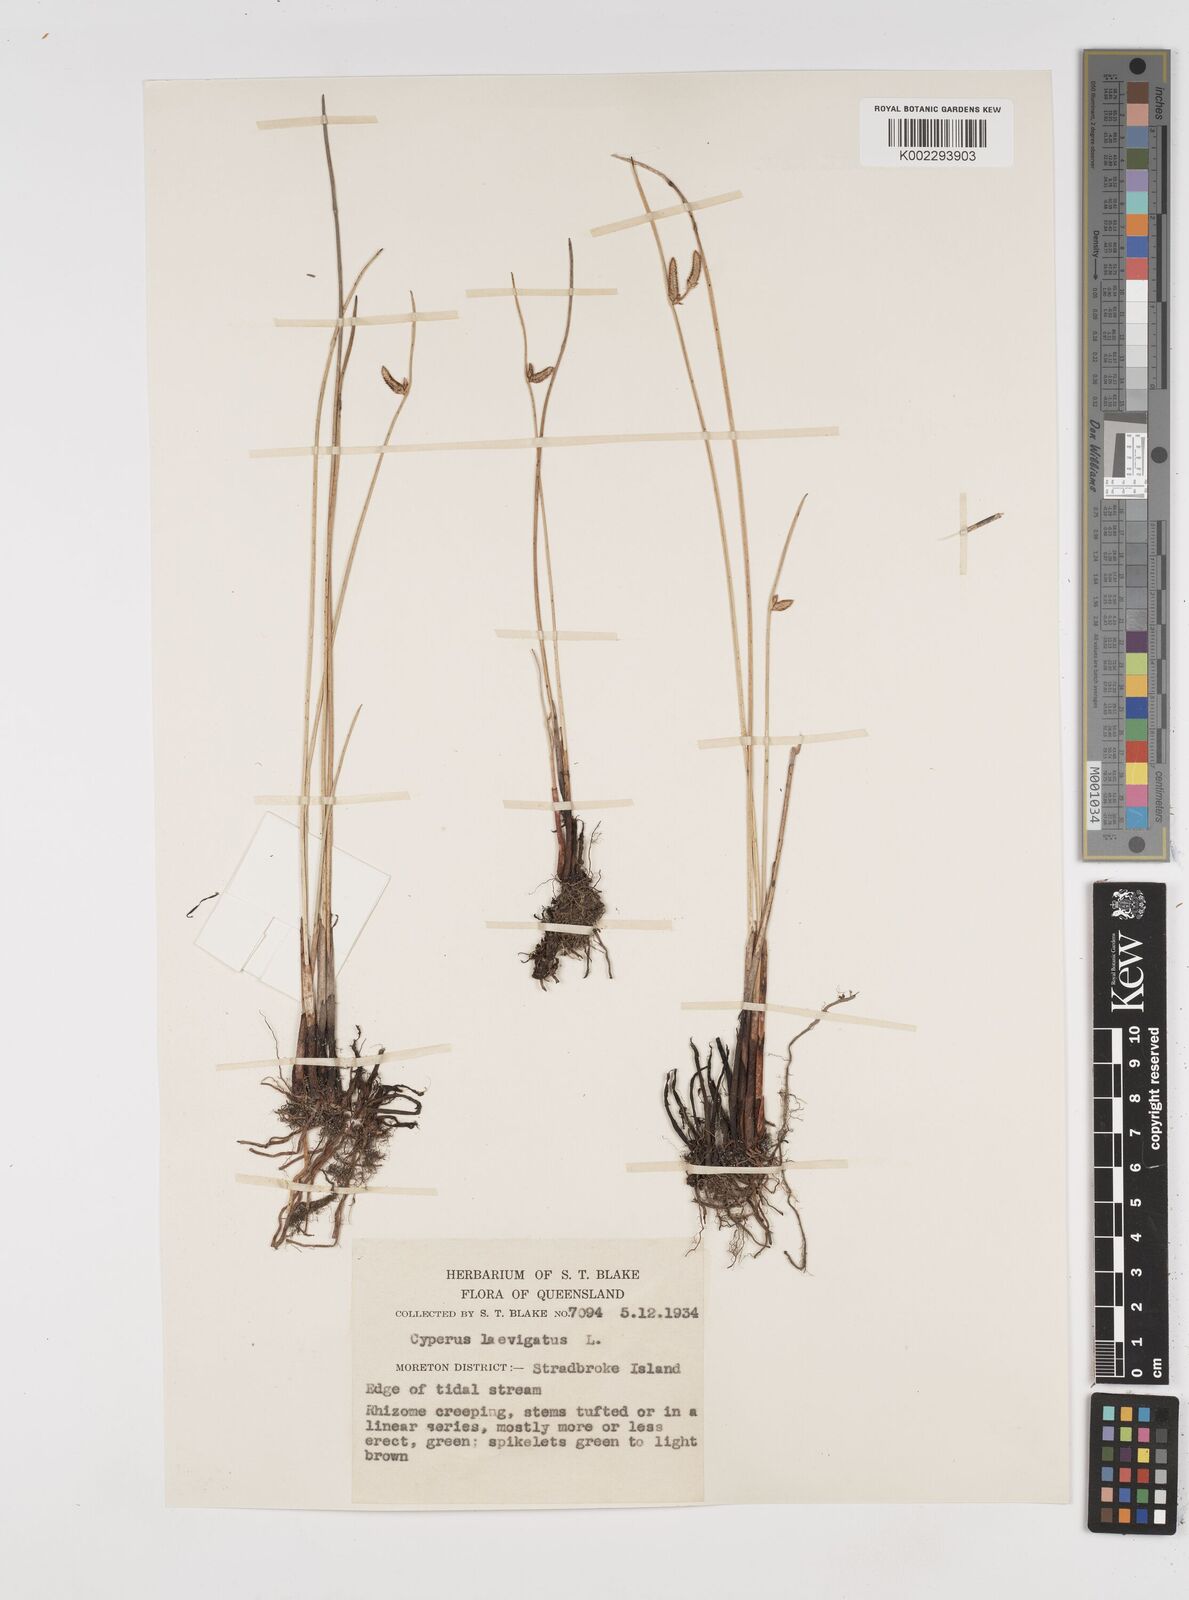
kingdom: Plantae
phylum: Tracheophyta
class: Liliopsida
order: Poales
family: Cyperaceae
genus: Cyperus
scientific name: Cyperus laevigatus
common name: Smooth flat sedge
